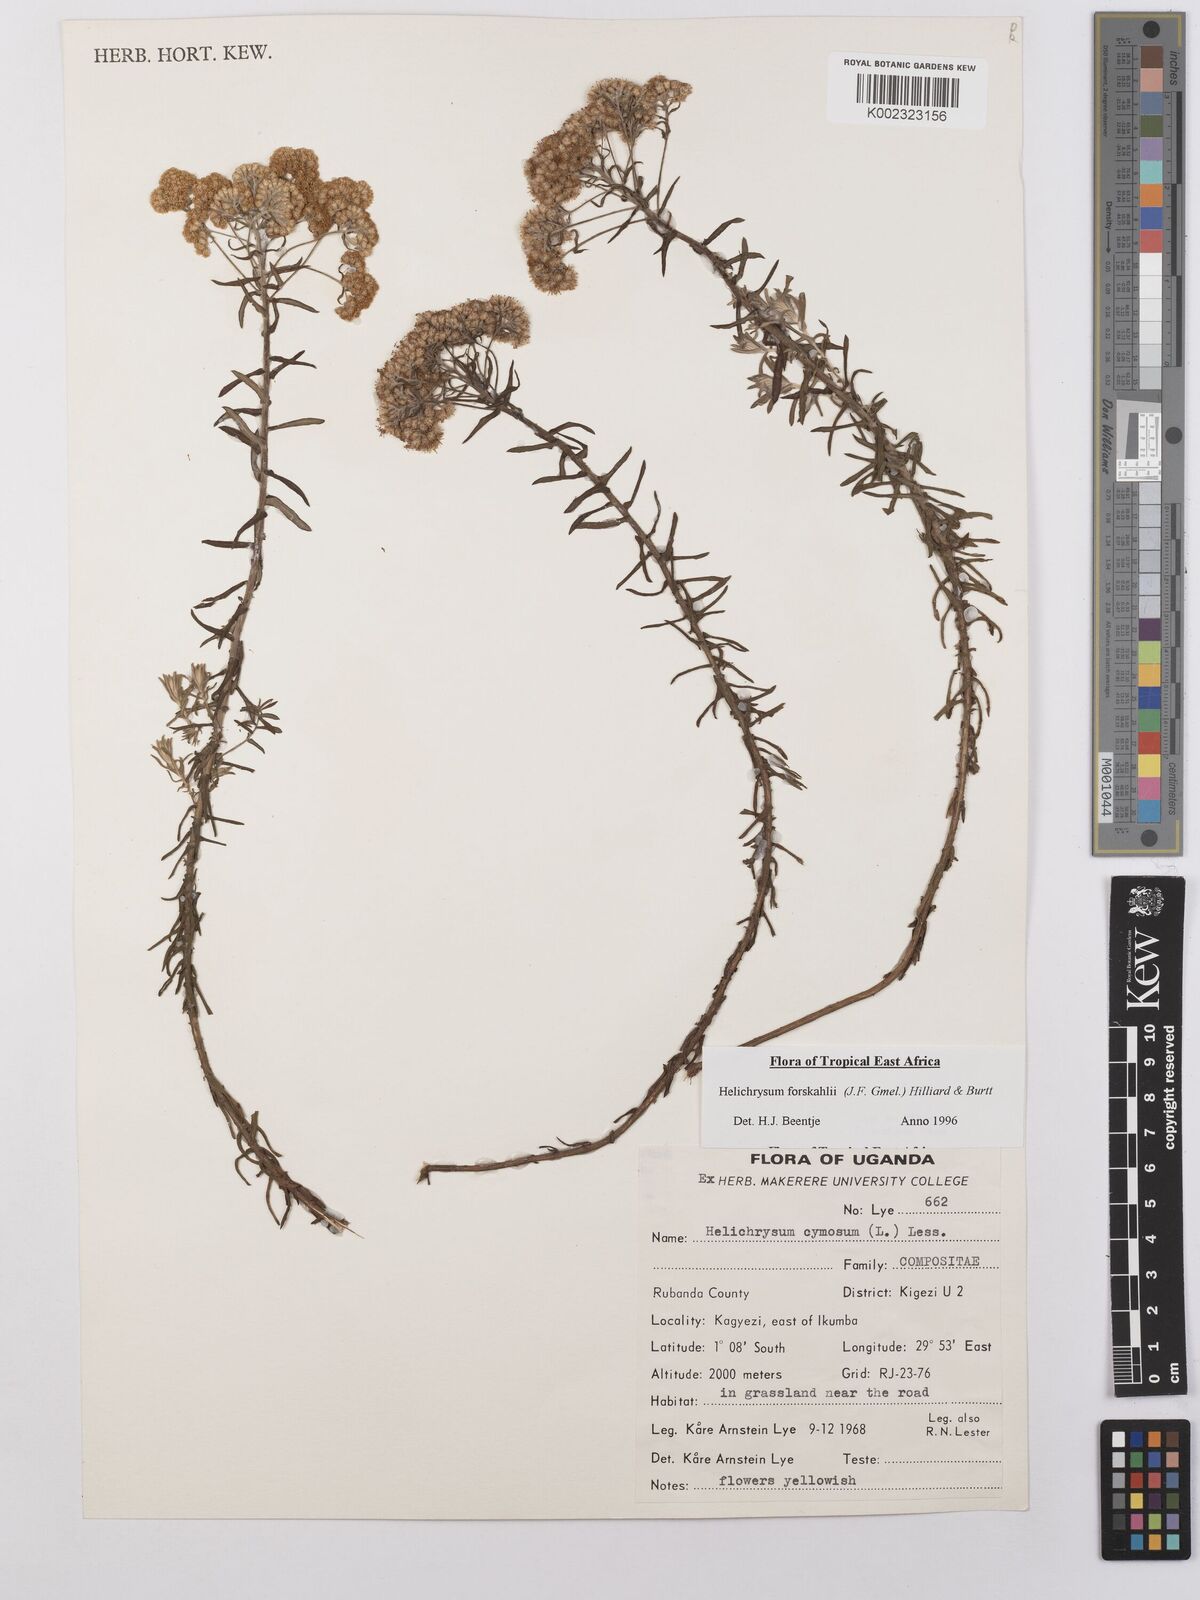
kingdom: Plantae
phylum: Tracheophyta
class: Magnoliopsida
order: Asterales
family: Asteraceae
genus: Helichrysum
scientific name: Helichrysum forskahlii
